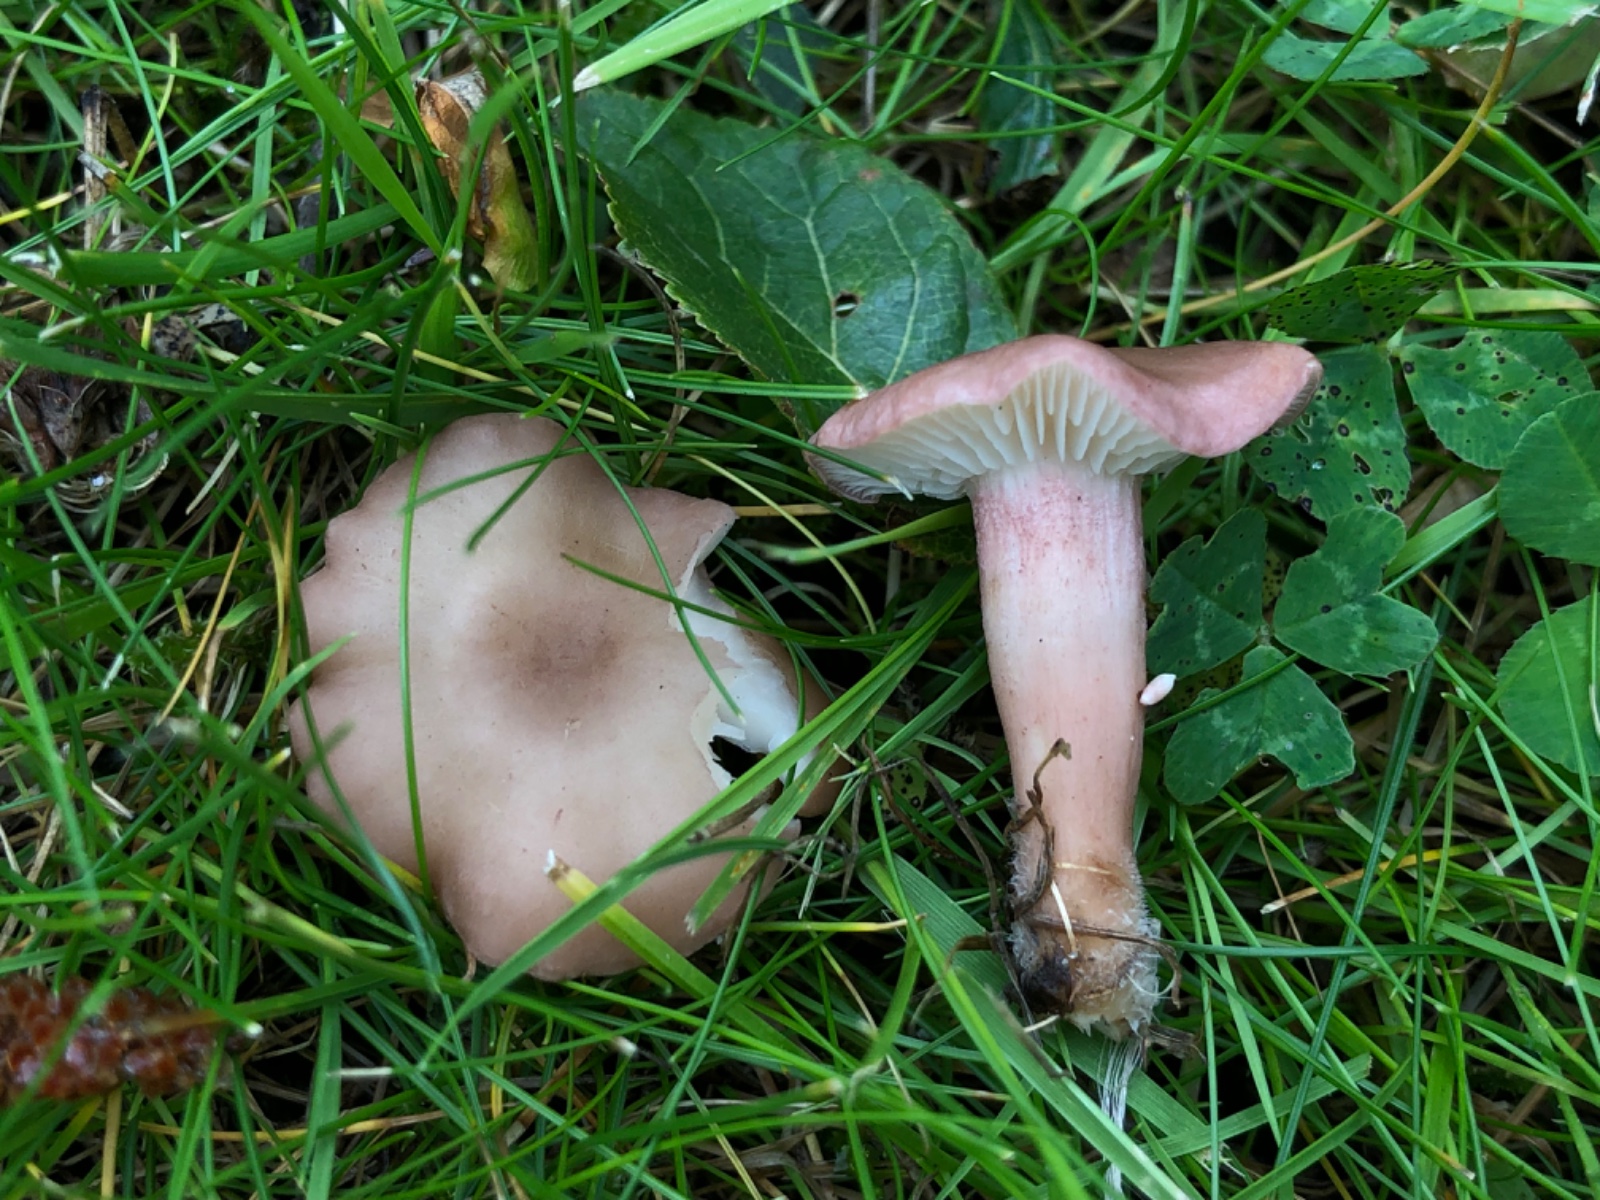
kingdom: Fungi
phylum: Basidiomycota
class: Agaricomycetes
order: Agaricales
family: Lyophyllaceae
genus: Calocybe
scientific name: Calocybe carnea
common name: rosa fagerhat
